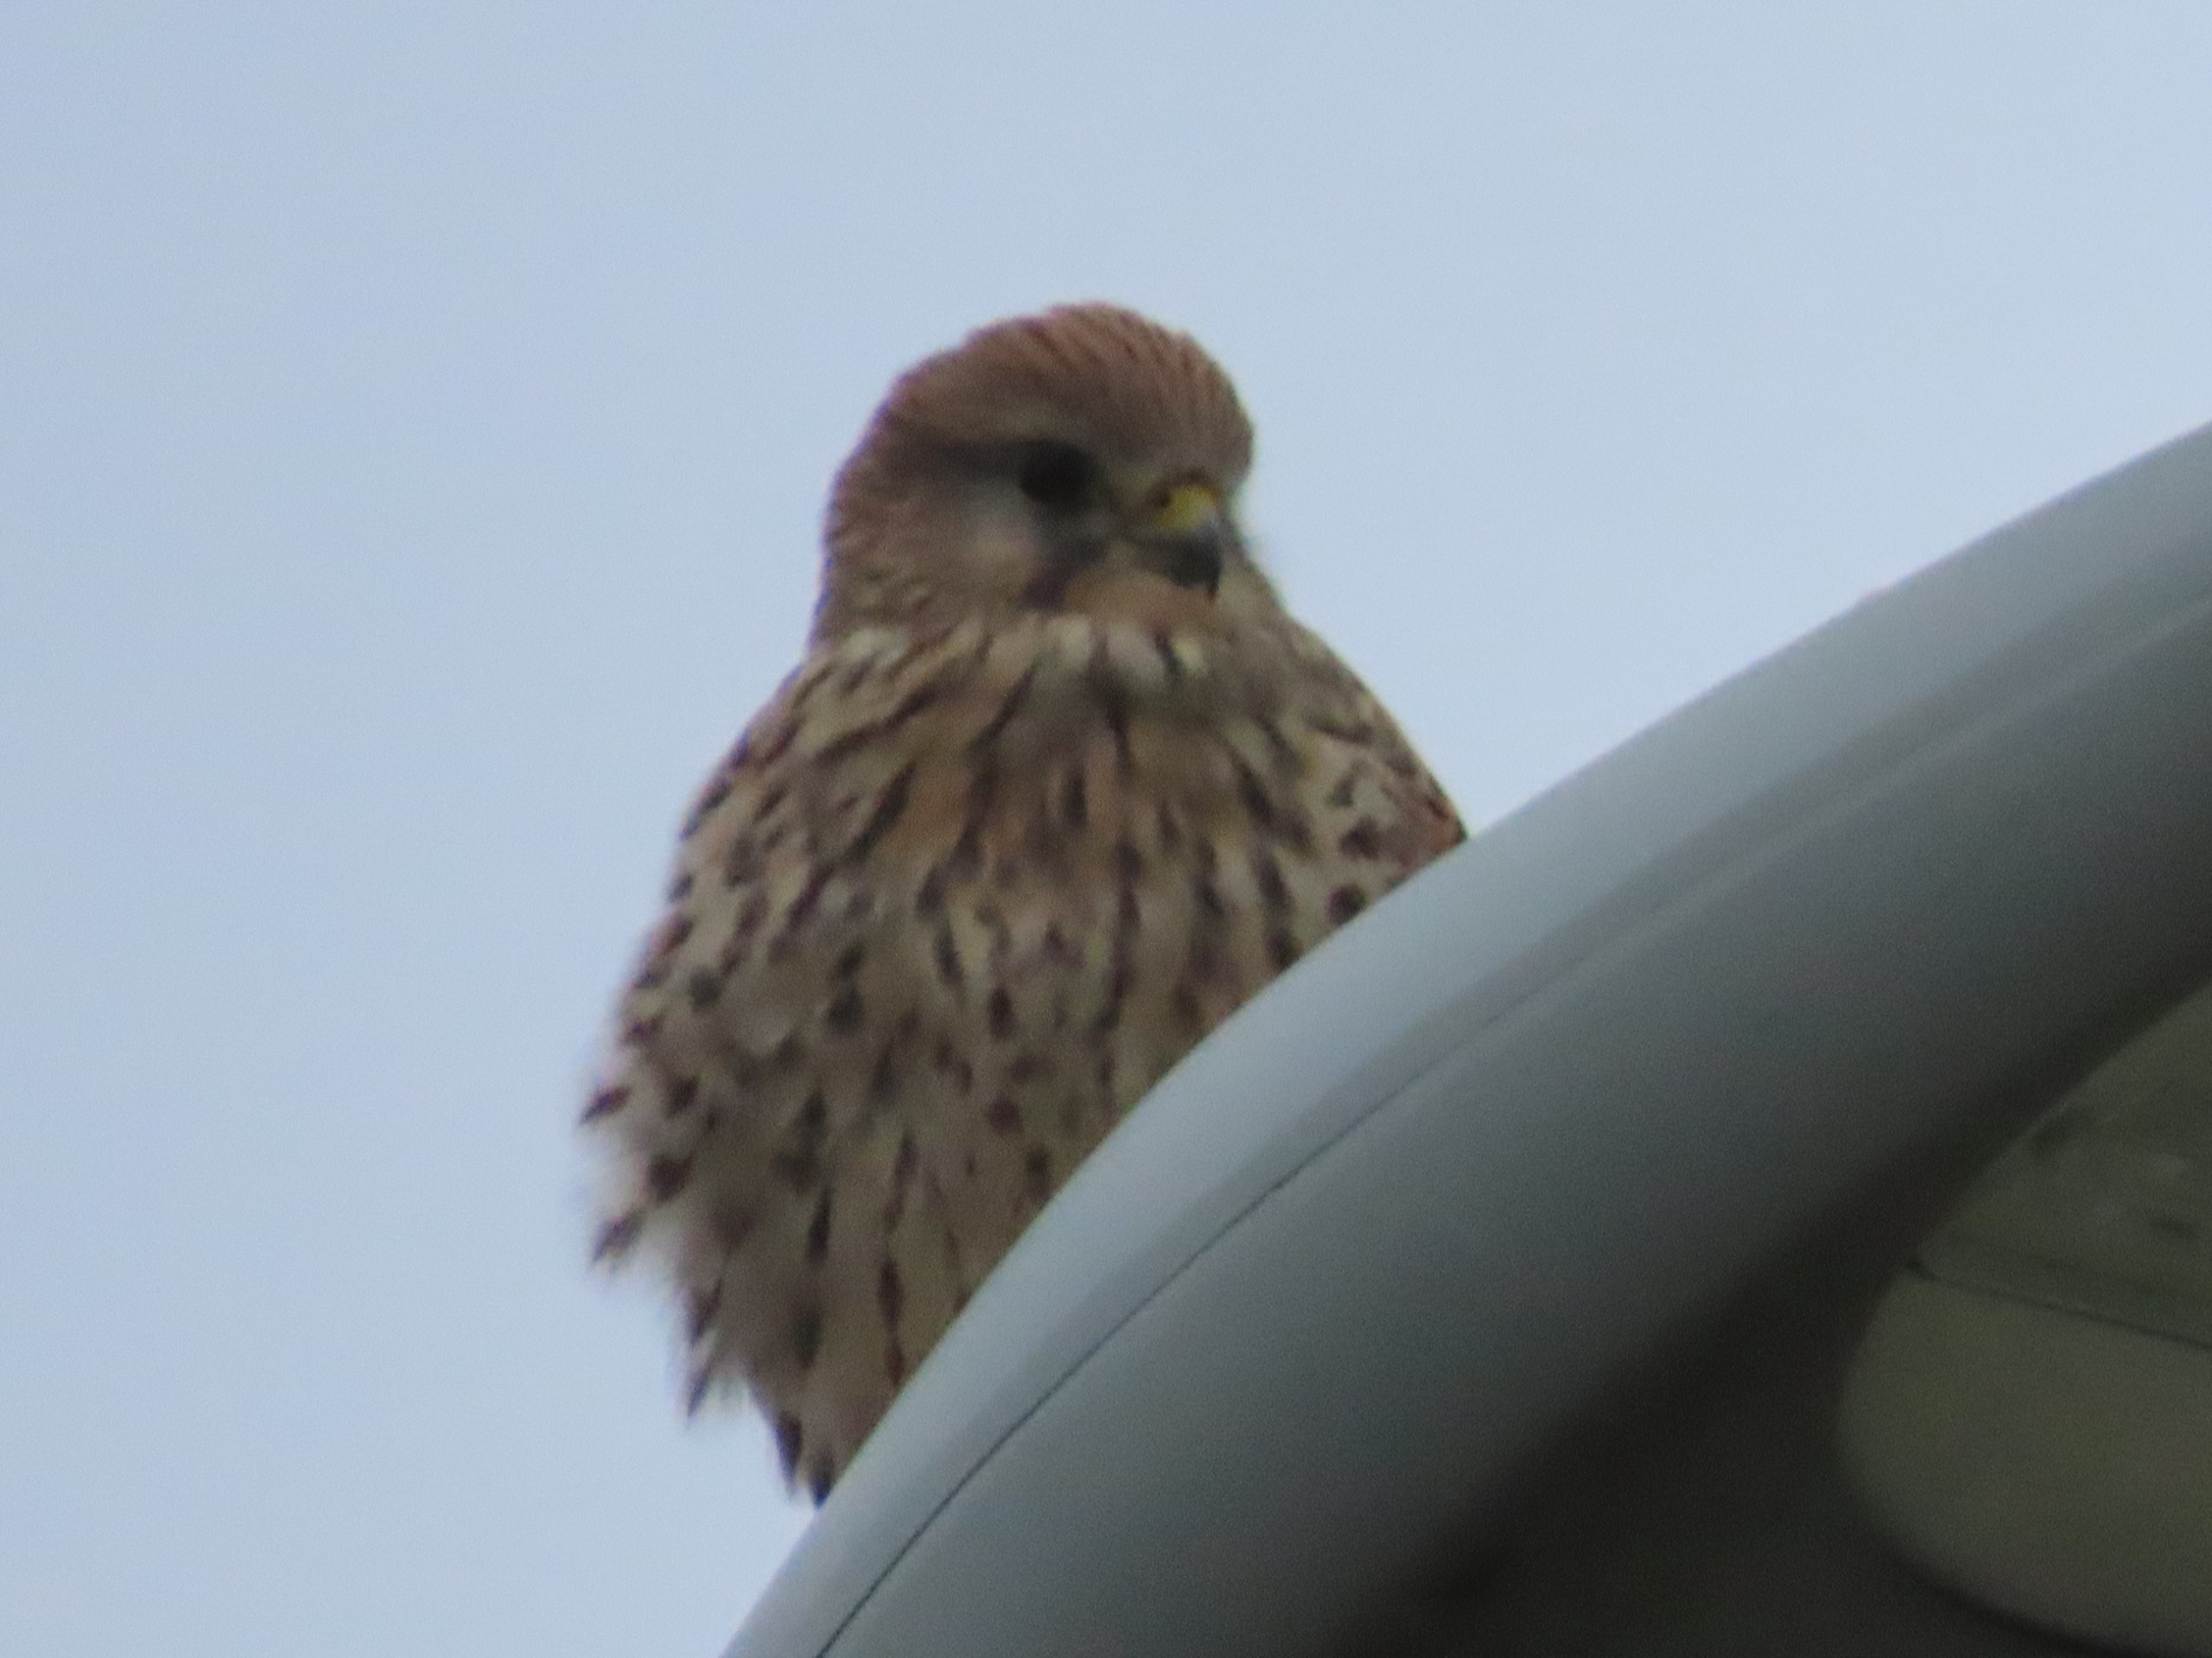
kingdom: Animalia
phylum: Chordata
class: Aves
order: Falconiformes
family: Falconidae
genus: Falco
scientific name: Falco tinnunculus
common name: Tårnfalk
